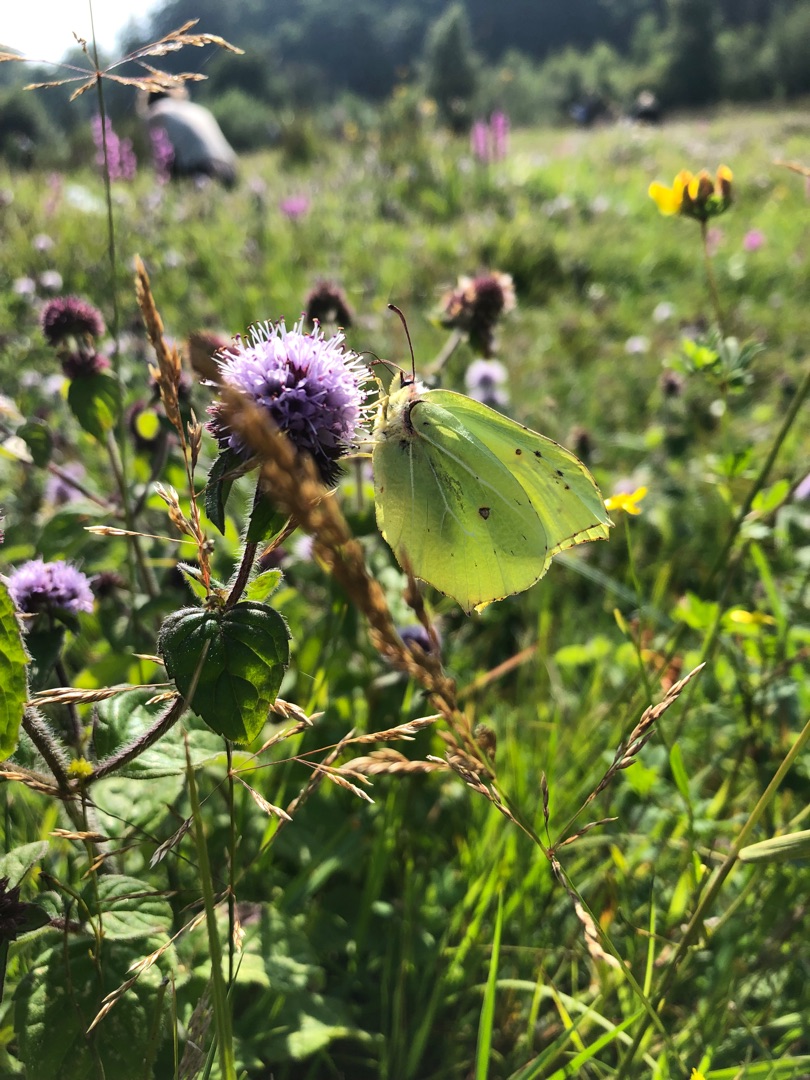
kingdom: Animalia
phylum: Arthropoda
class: Insecta
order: Lepidoptera
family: Pieridae
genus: Gonepteryx
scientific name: Gonepteryx rhamni
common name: Citronsommerfugl
